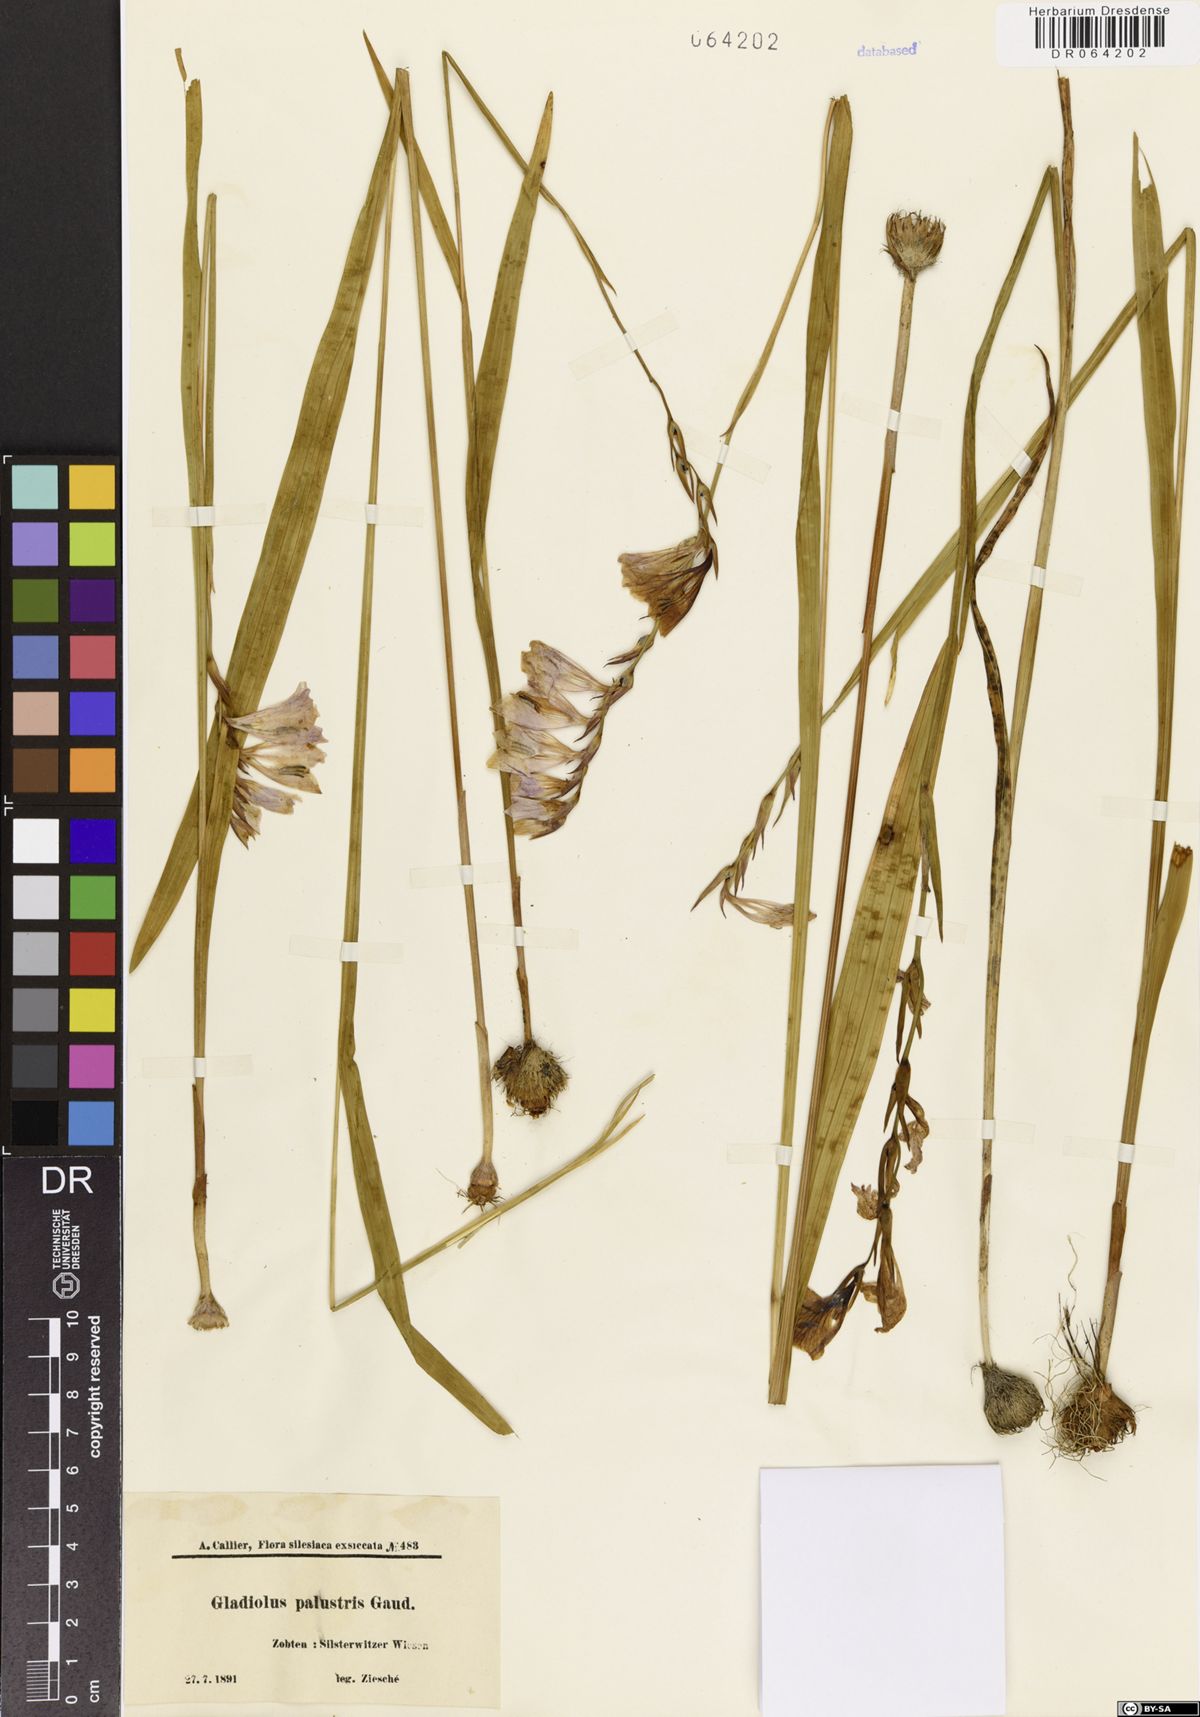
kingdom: Plantae
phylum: Tracheophyta
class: Liliopsida
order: Asparagales
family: Iridaceae
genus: Gladiolus
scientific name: Gladiolus palustris
